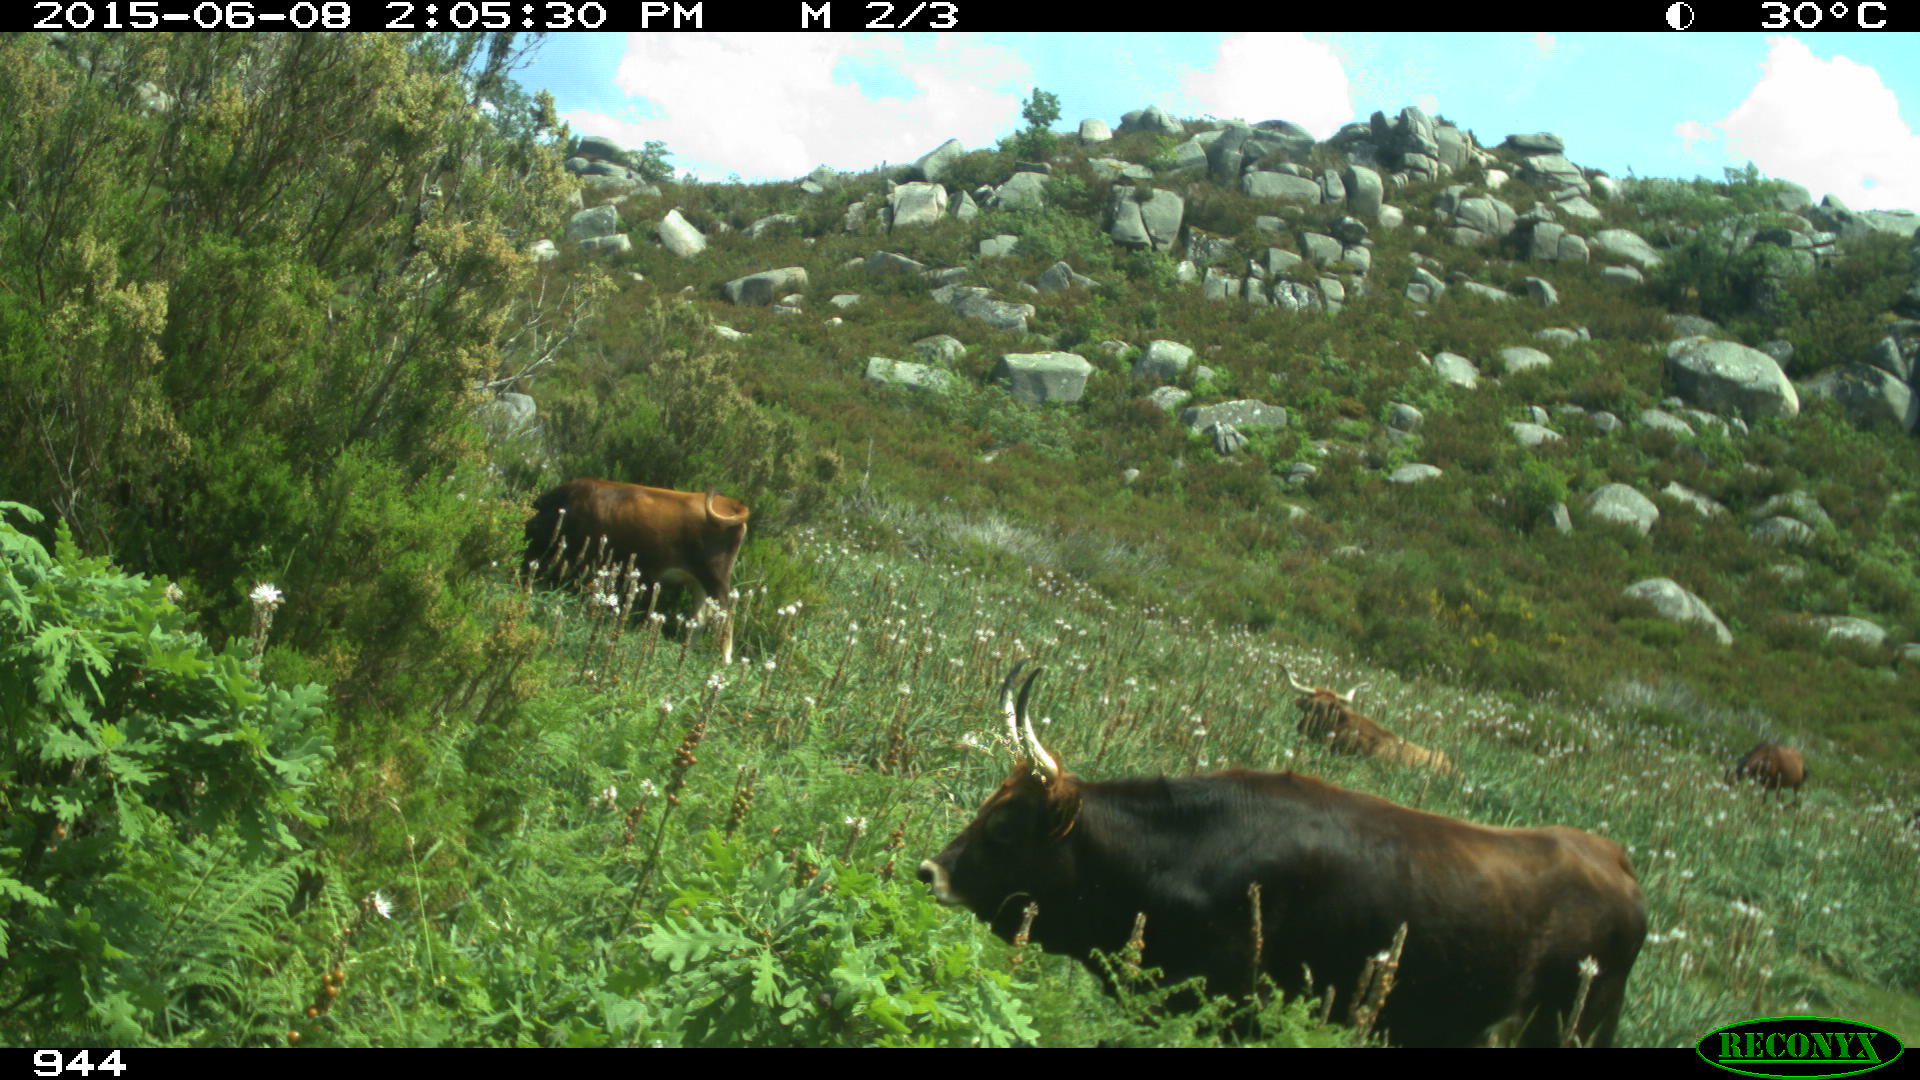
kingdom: Animalia
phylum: Chordata
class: Mammalia
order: Artiodactyla
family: Bovidae
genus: Bos
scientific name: Bos taurus
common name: Domesticated cattle
